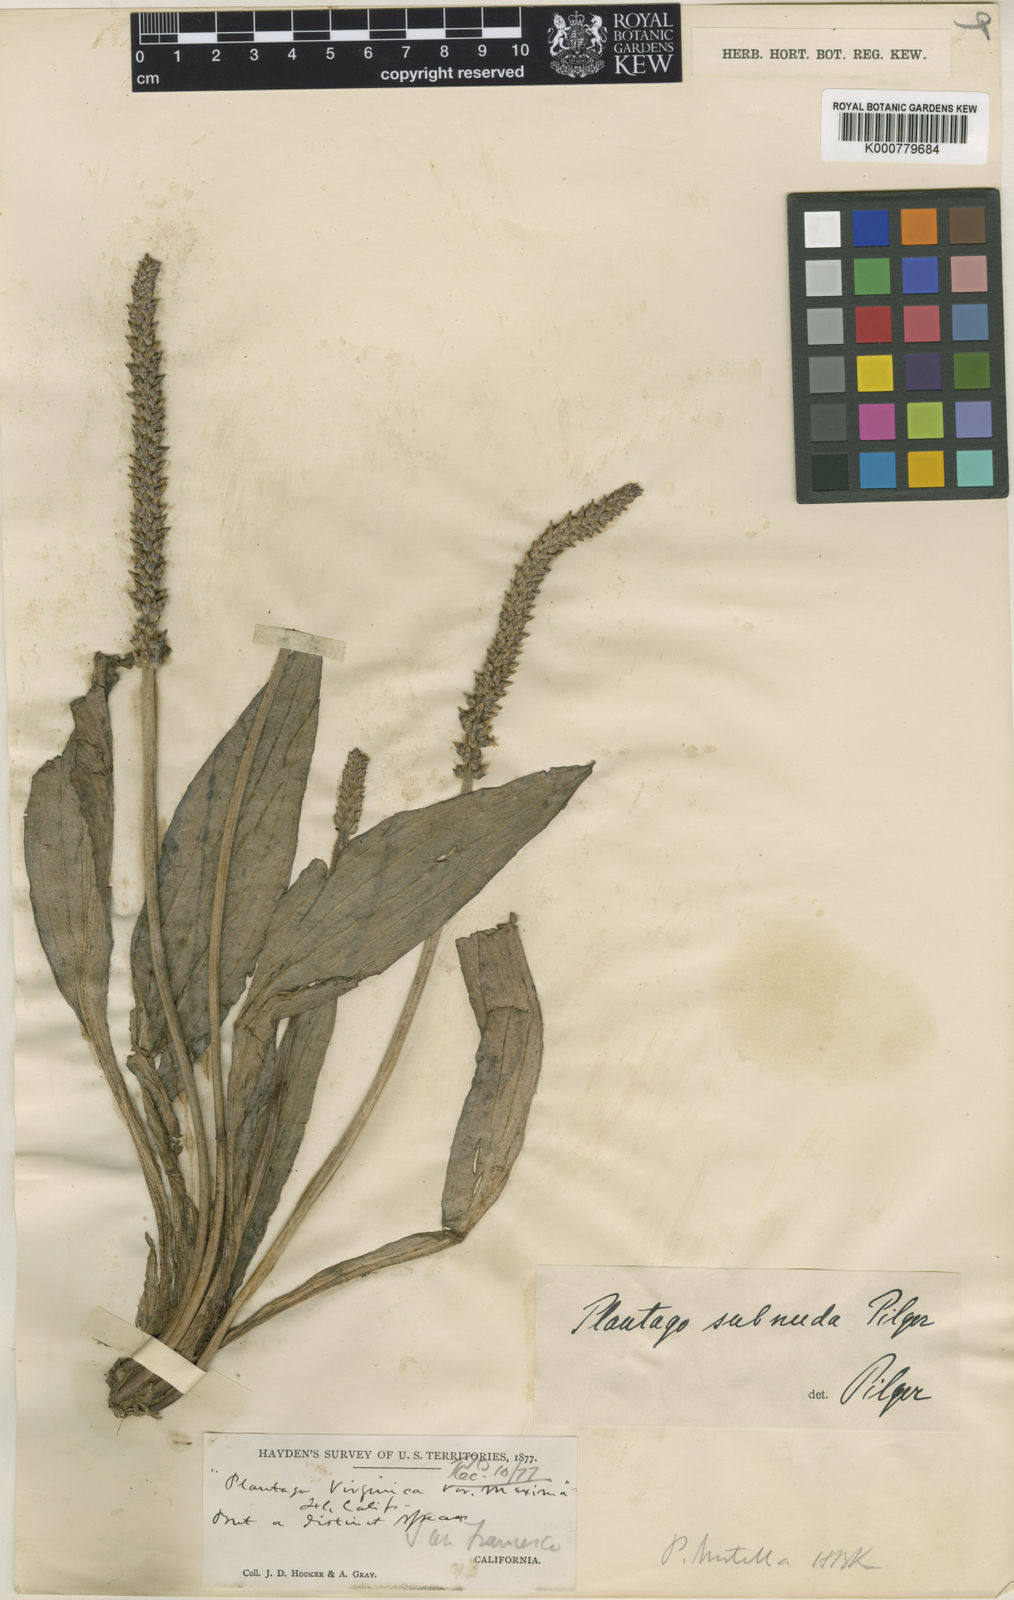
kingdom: Plantae
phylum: Tracheophyta
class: Magnoliopsida
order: Lamiales
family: Plantaginaceae
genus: Plantago
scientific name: Plantago subnuda
